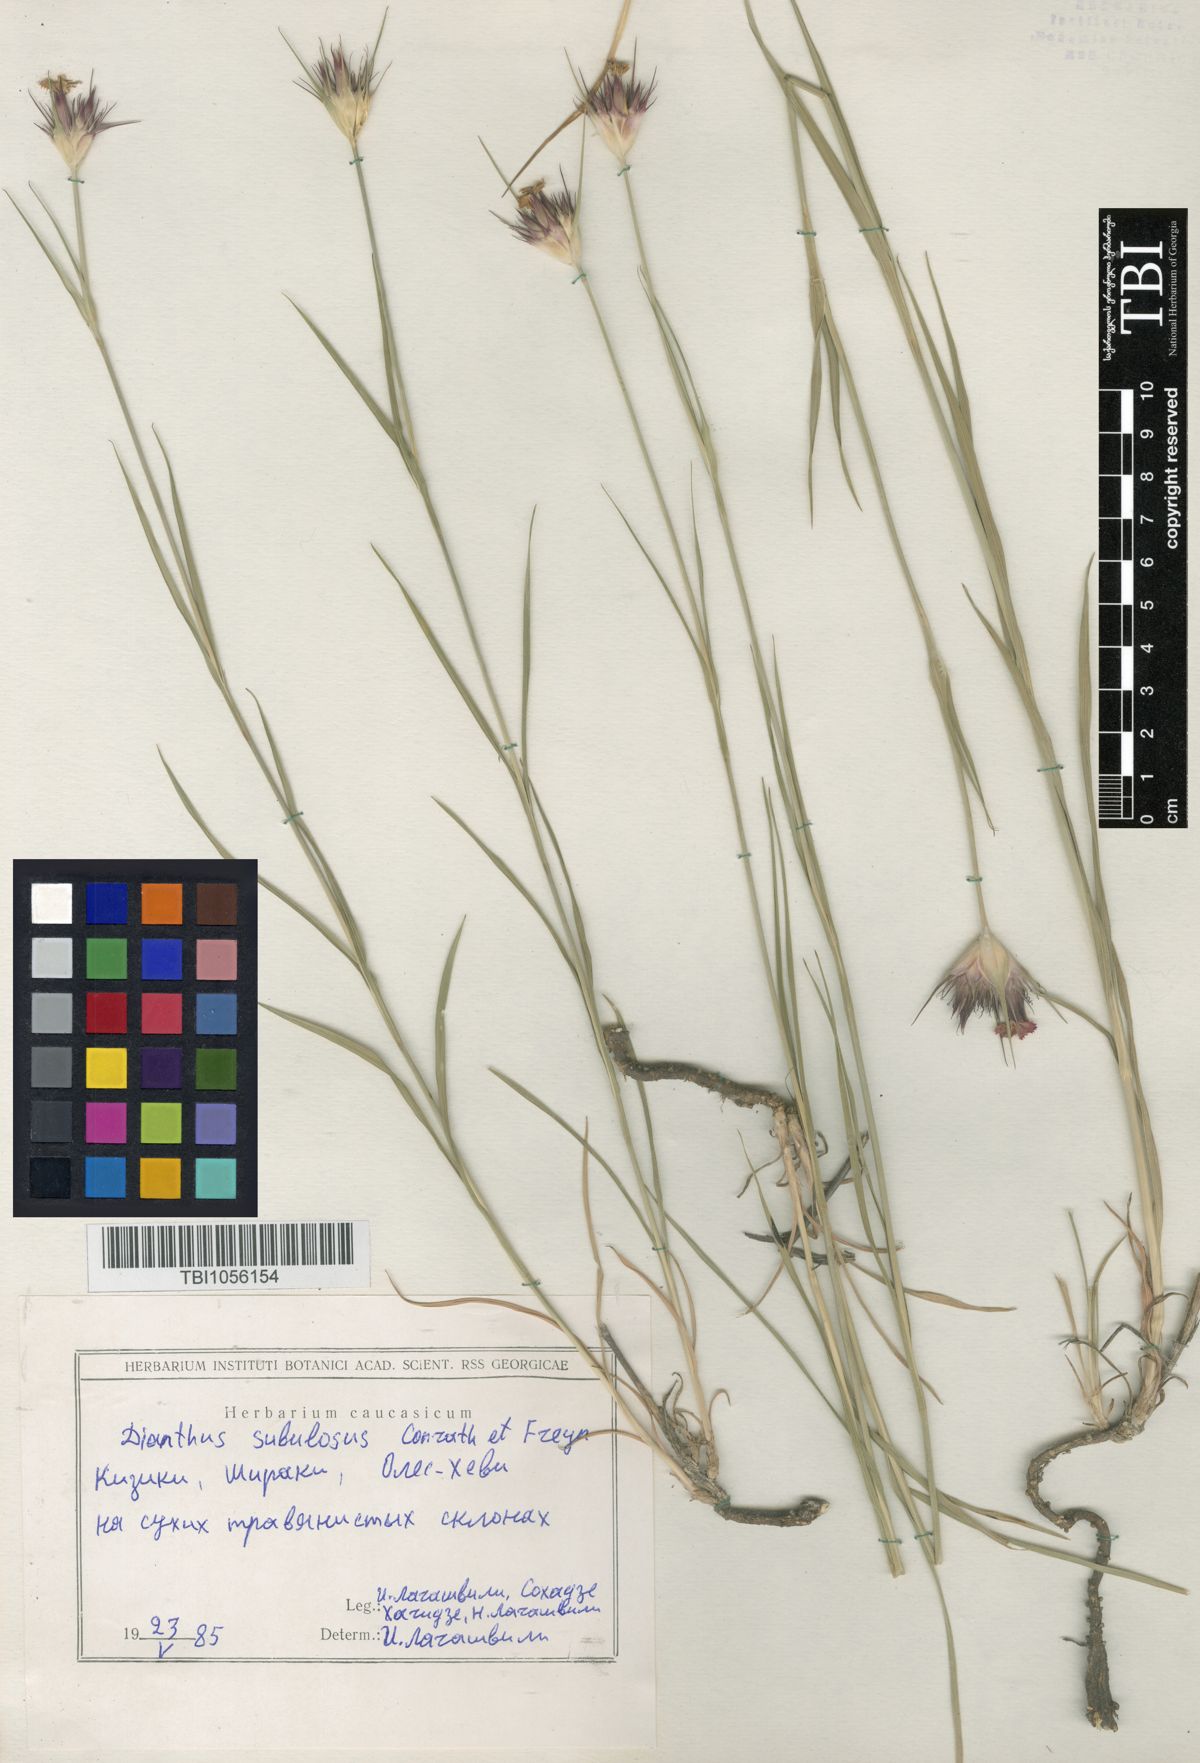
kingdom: Plantae
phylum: Tracheophyta
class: Magnoliopsida
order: Caryophyllales
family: Caryophyllaceae
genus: Dianthus
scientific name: Dianthus subulosus
